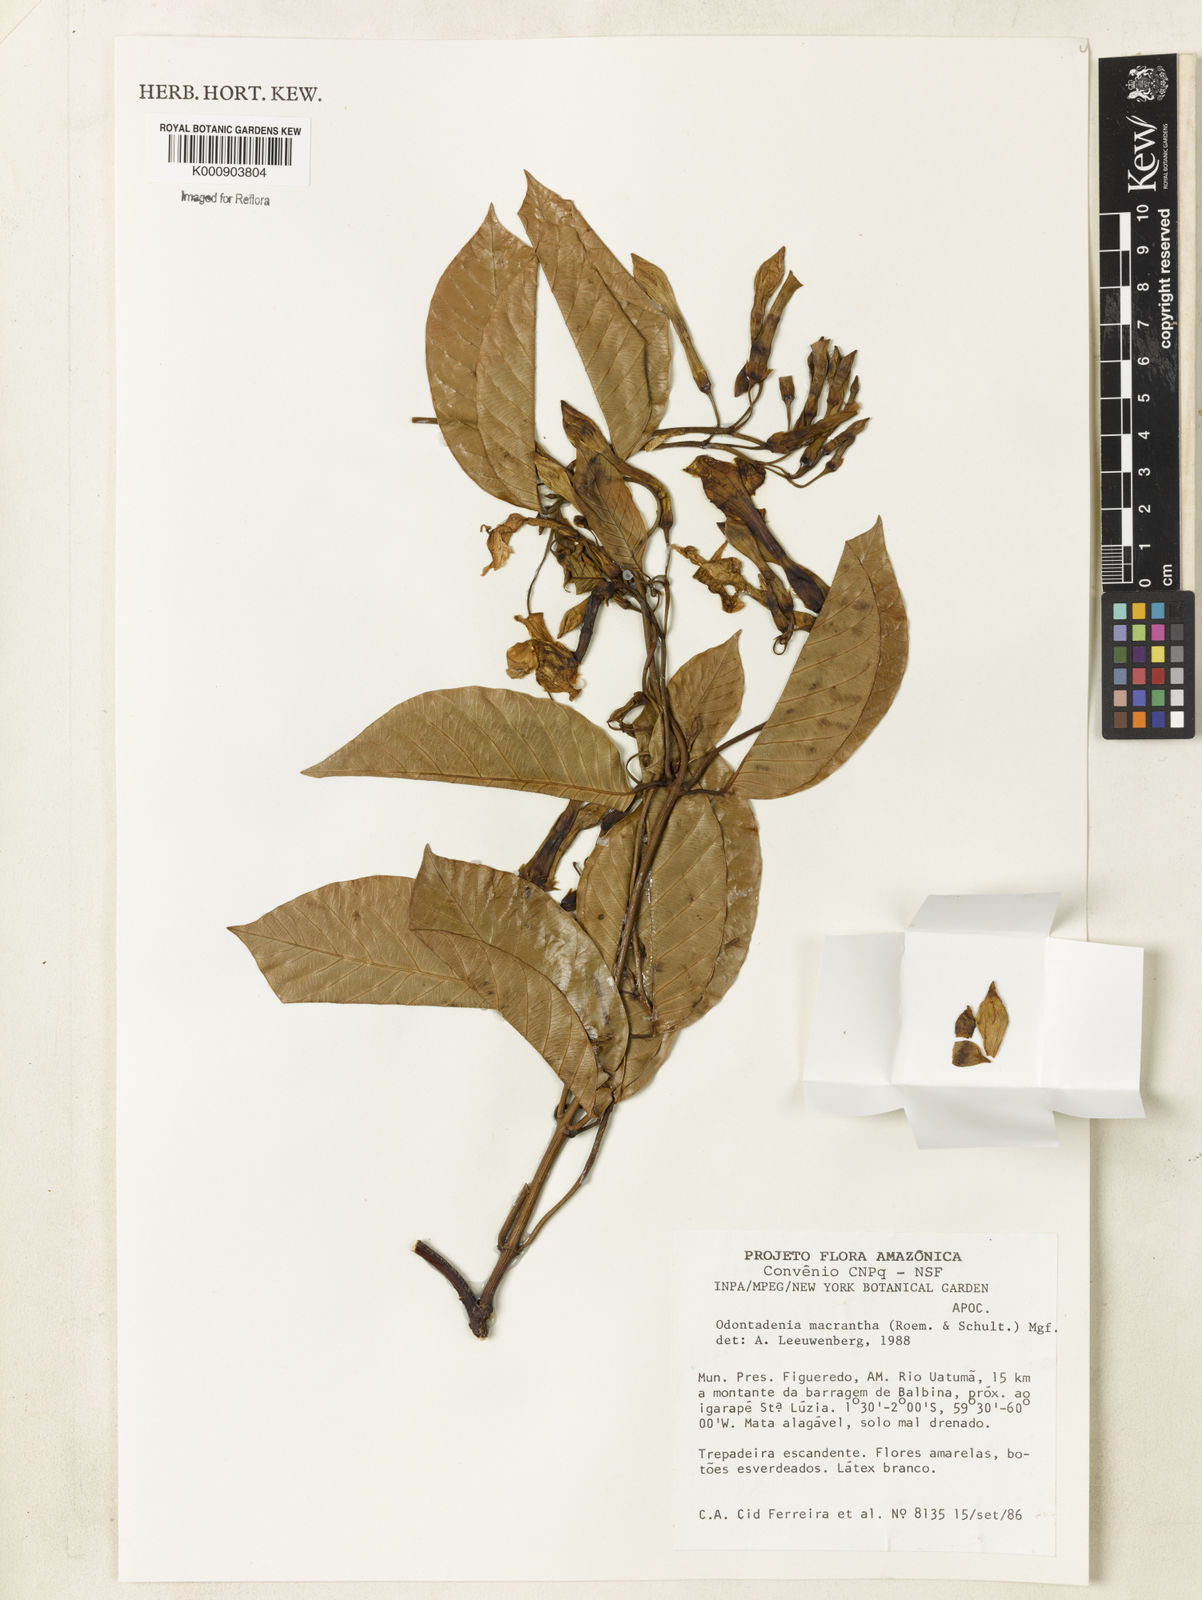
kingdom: Plantae
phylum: Tracheophyta
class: Magnoliopsida
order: Gentianales
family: Apocynaceae
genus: Odontadenia
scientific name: Odontadenia semidigyna
